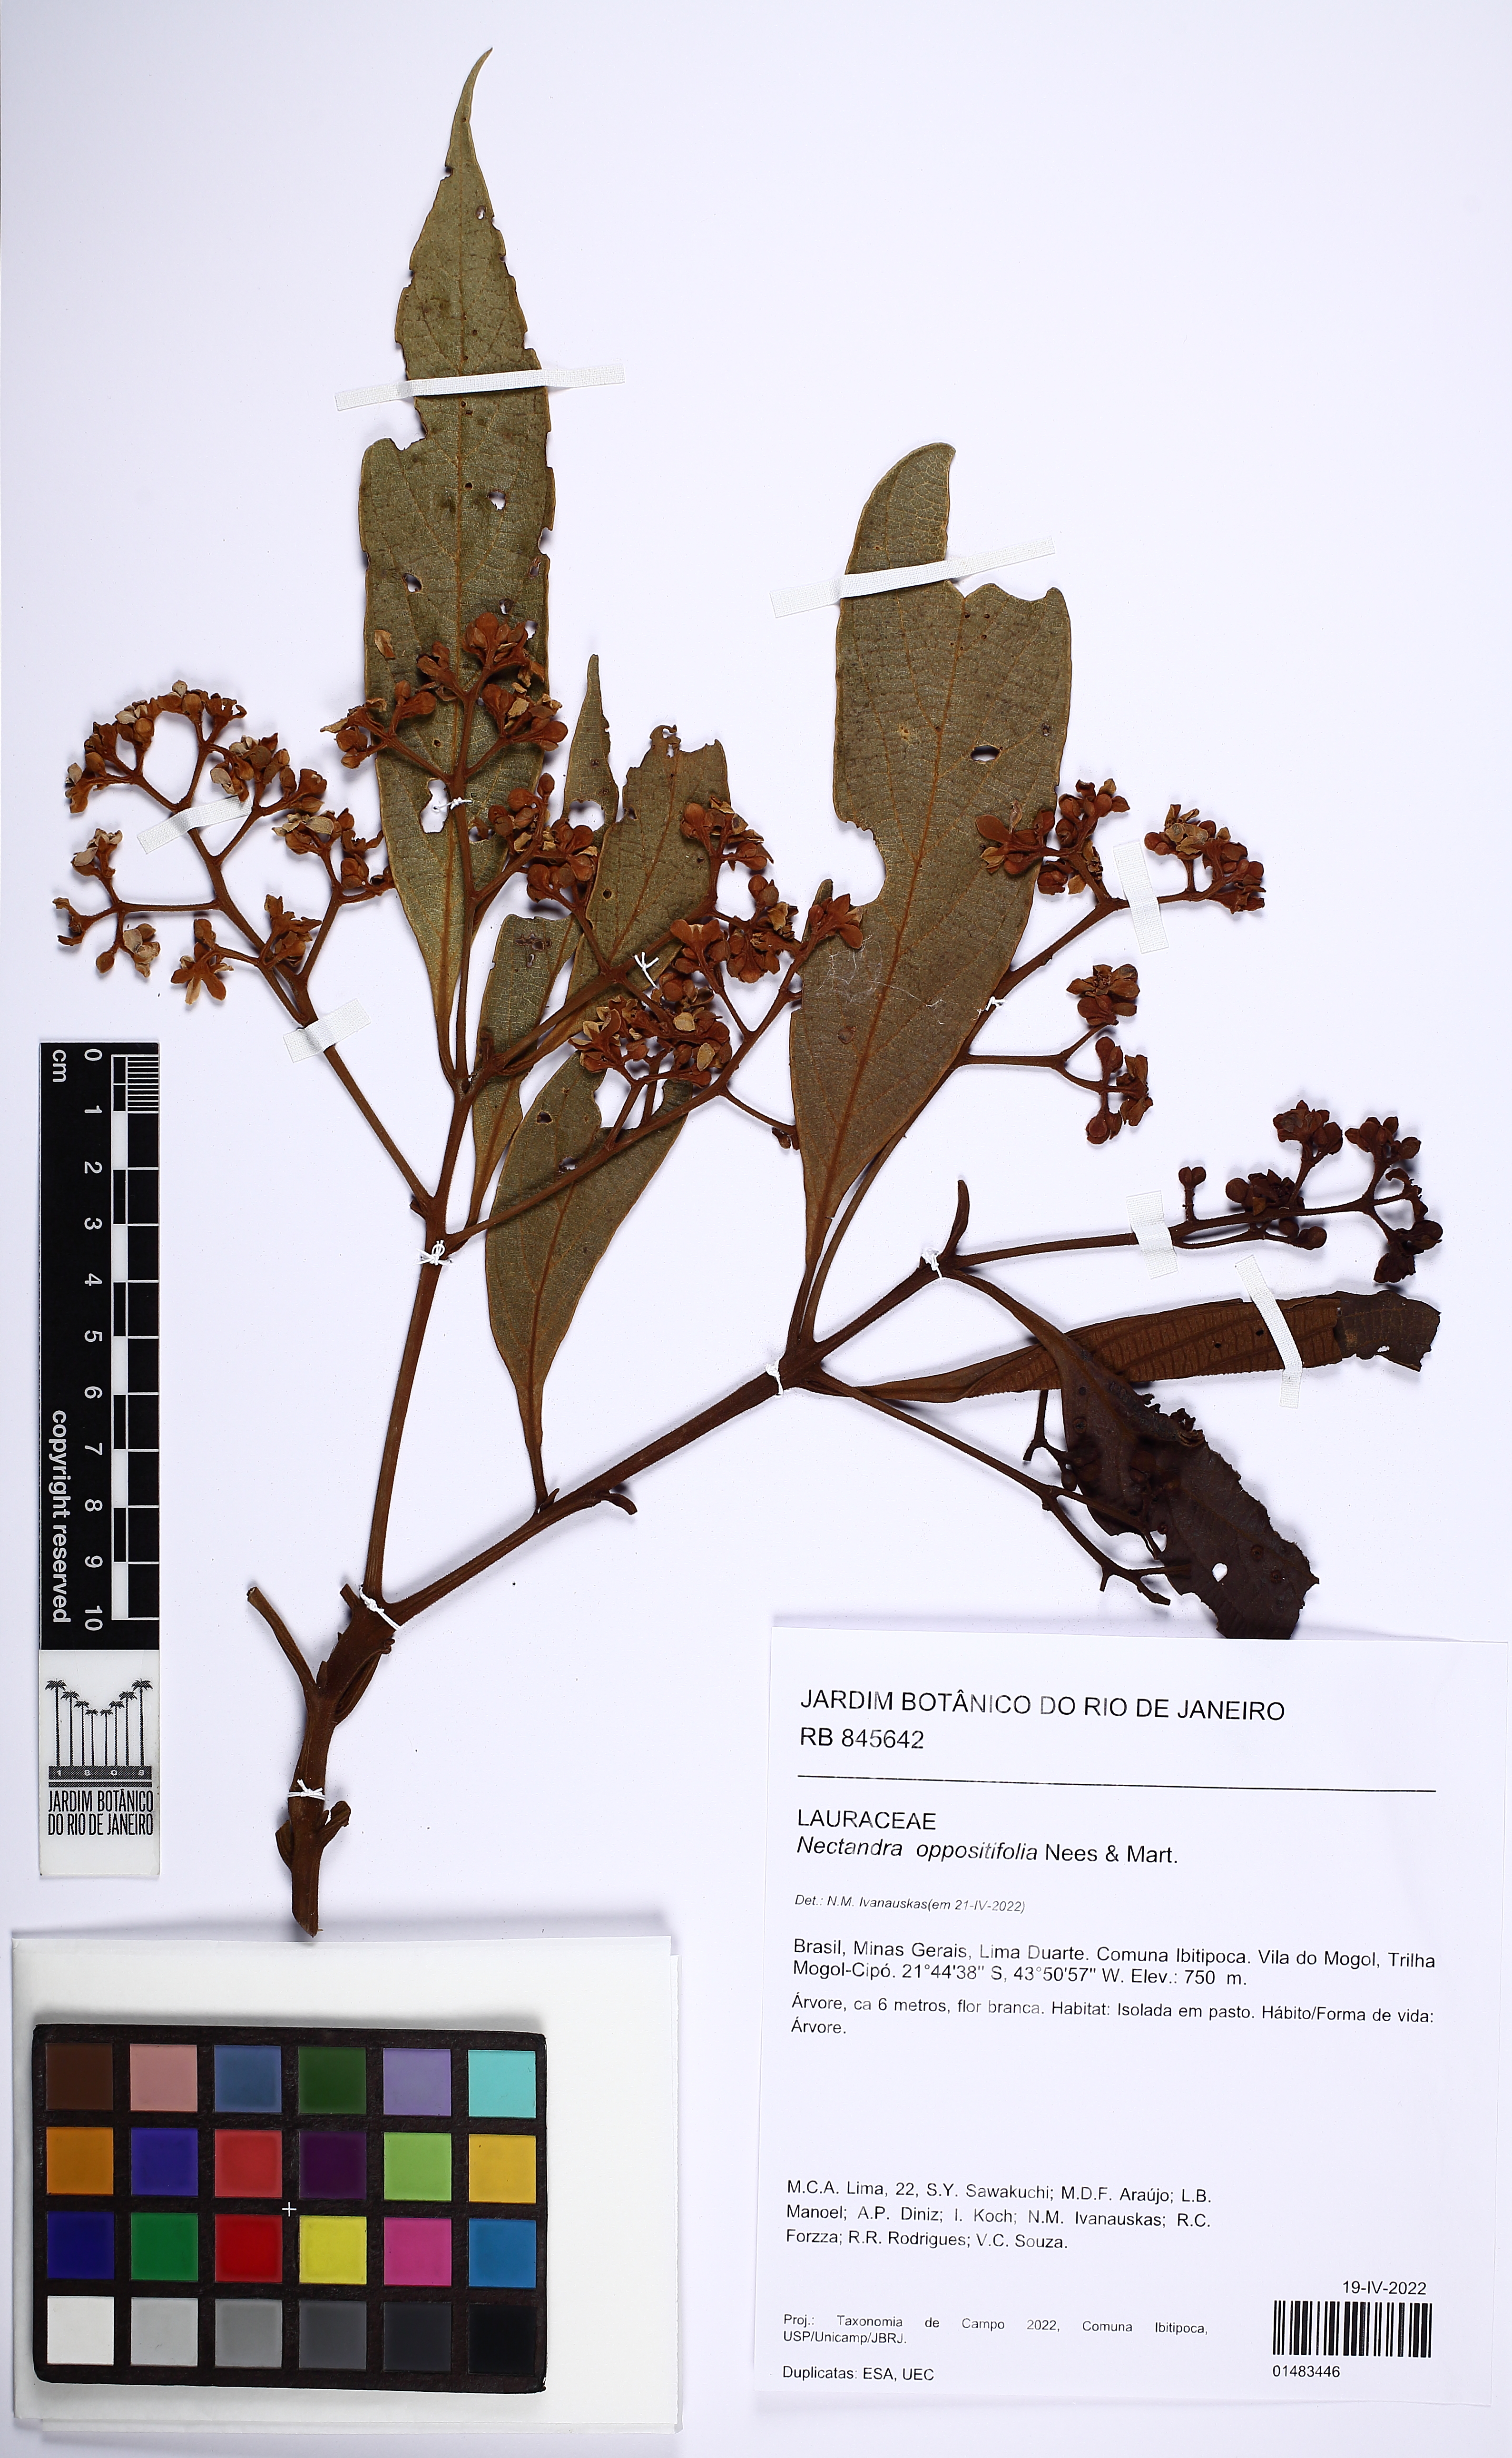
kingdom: Plantae
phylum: Tracheophyta
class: Magnoliopsida
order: Laurales
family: Lauraceae
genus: Nectandra
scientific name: Nectandra oppositifolia
